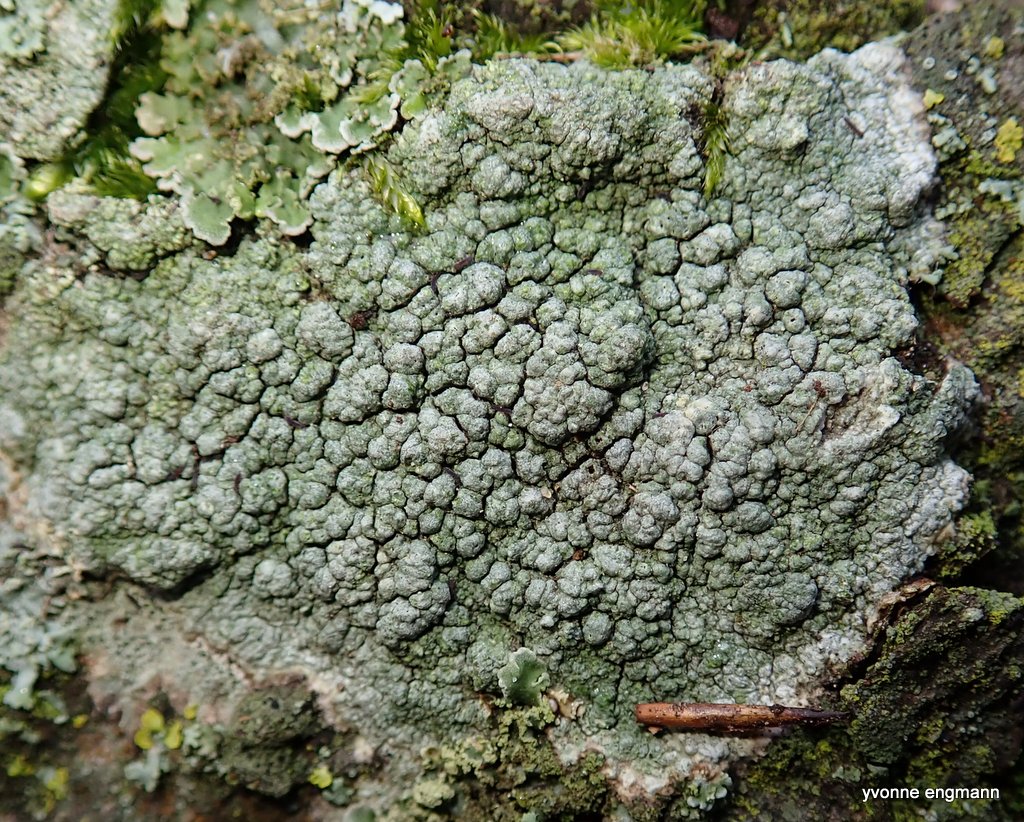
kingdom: Fungi
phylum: Ascomycota
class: Lecanoromycetes
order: Pertusariales
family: Pertusariaceae
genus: Pertusaria
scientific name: Pertusaria pertusa
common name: almindelig prikvortelav
